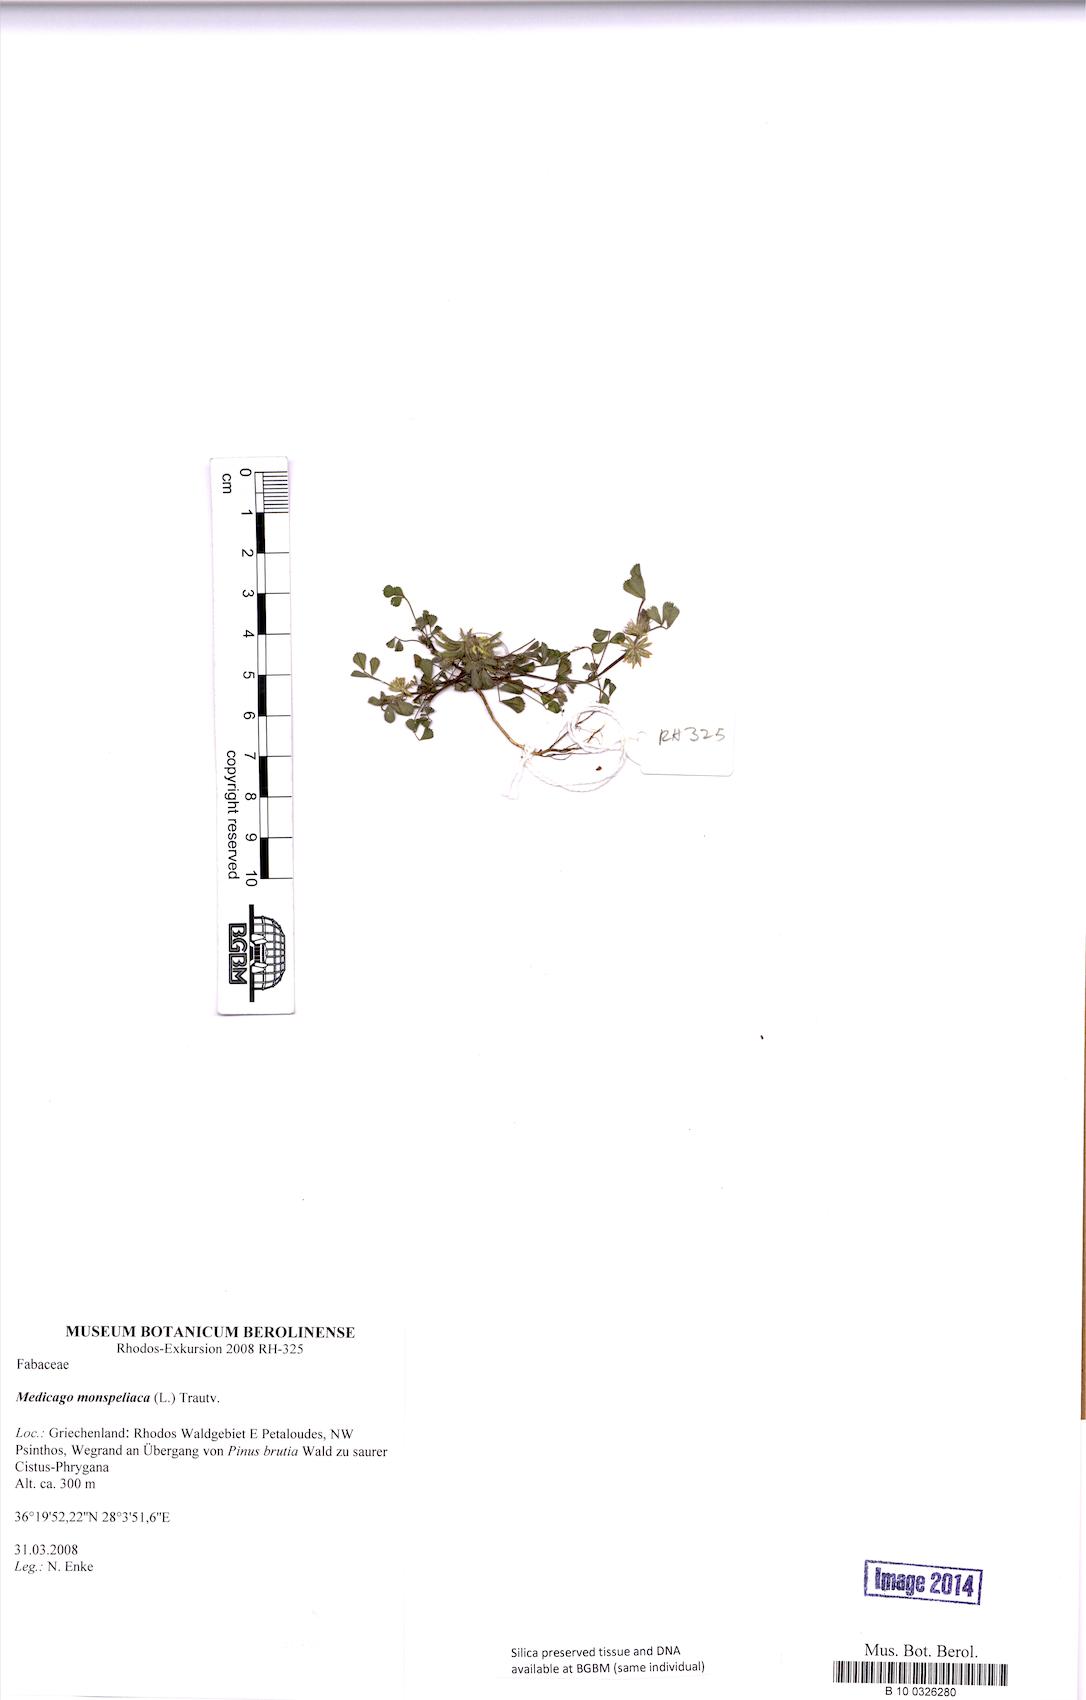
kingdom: Plantae
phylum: Tracheophyta
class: Magnoliopsida
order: Fabales
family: Fabaceae
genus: Medicago
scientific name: Medicago monspeliaca
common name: Hairy medick
